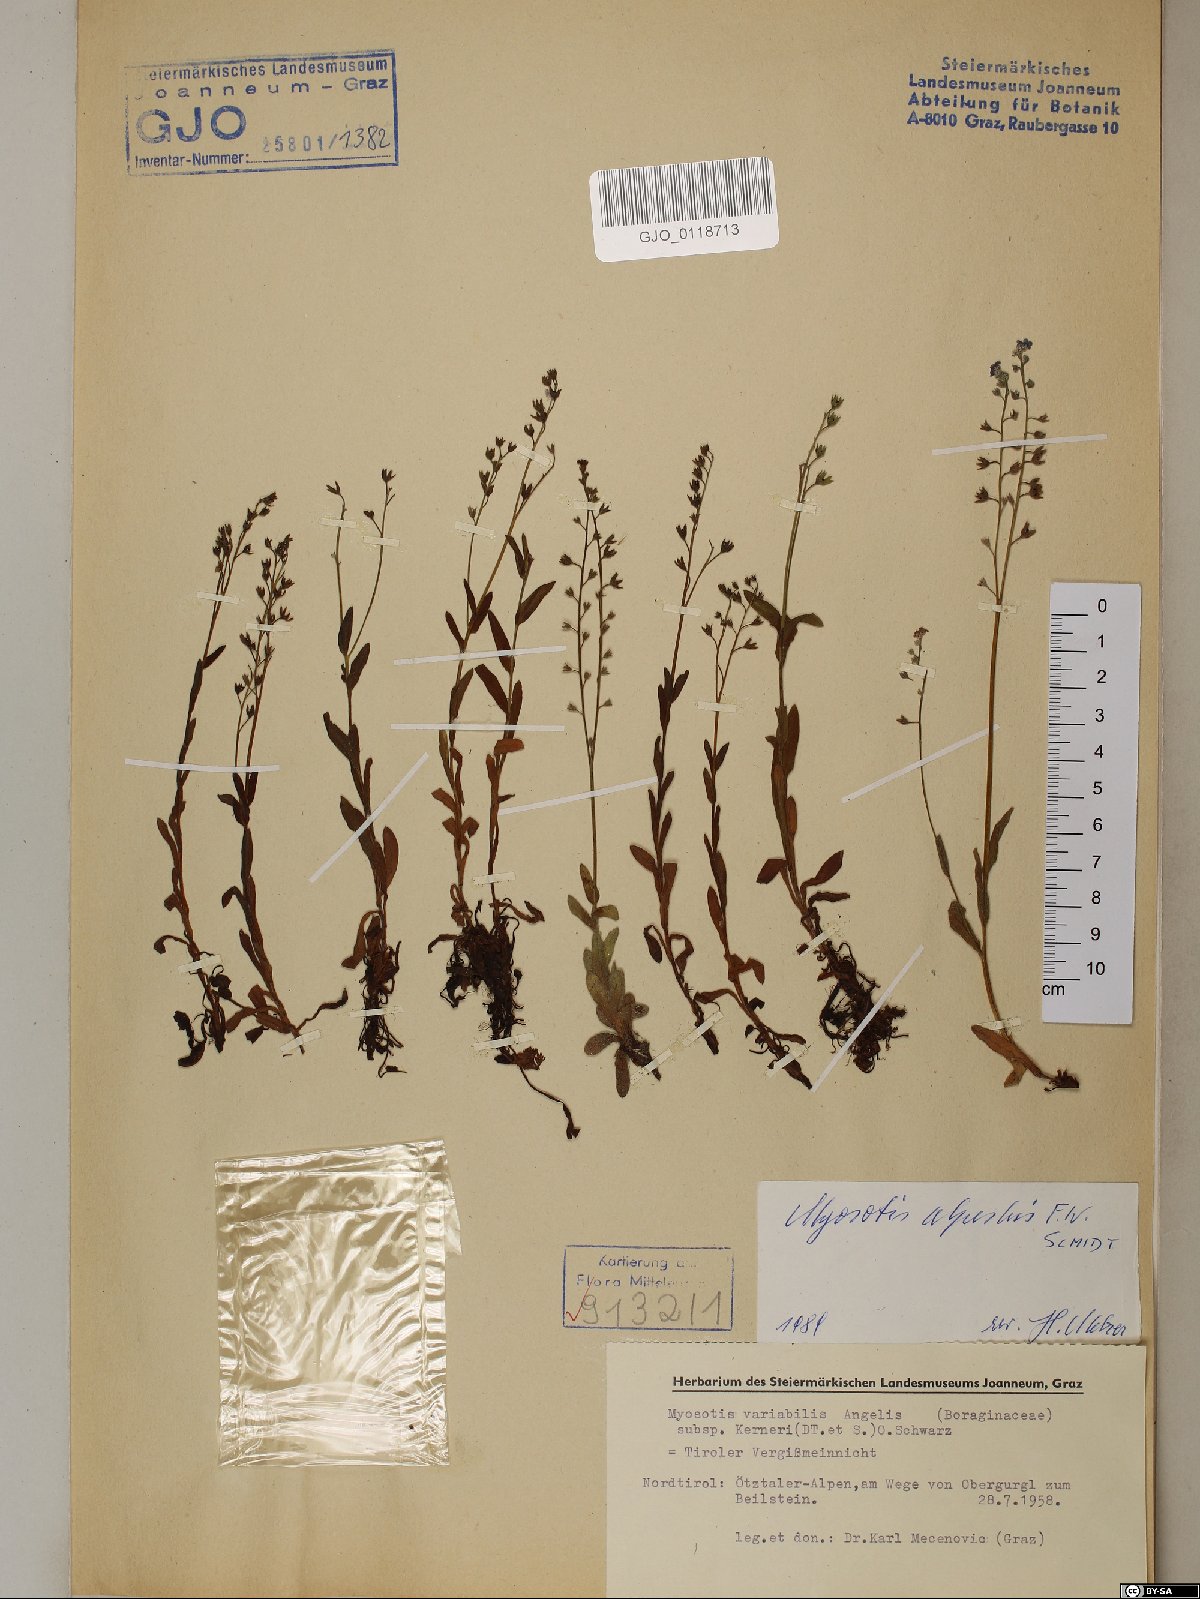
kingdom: Plantae
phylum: Tracheophyta
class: Magnoliopsida
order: Boraginales
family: Boraginaceae
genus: Myosotis
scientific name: Myosotis alpestris
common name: Alpine forget-me-not
